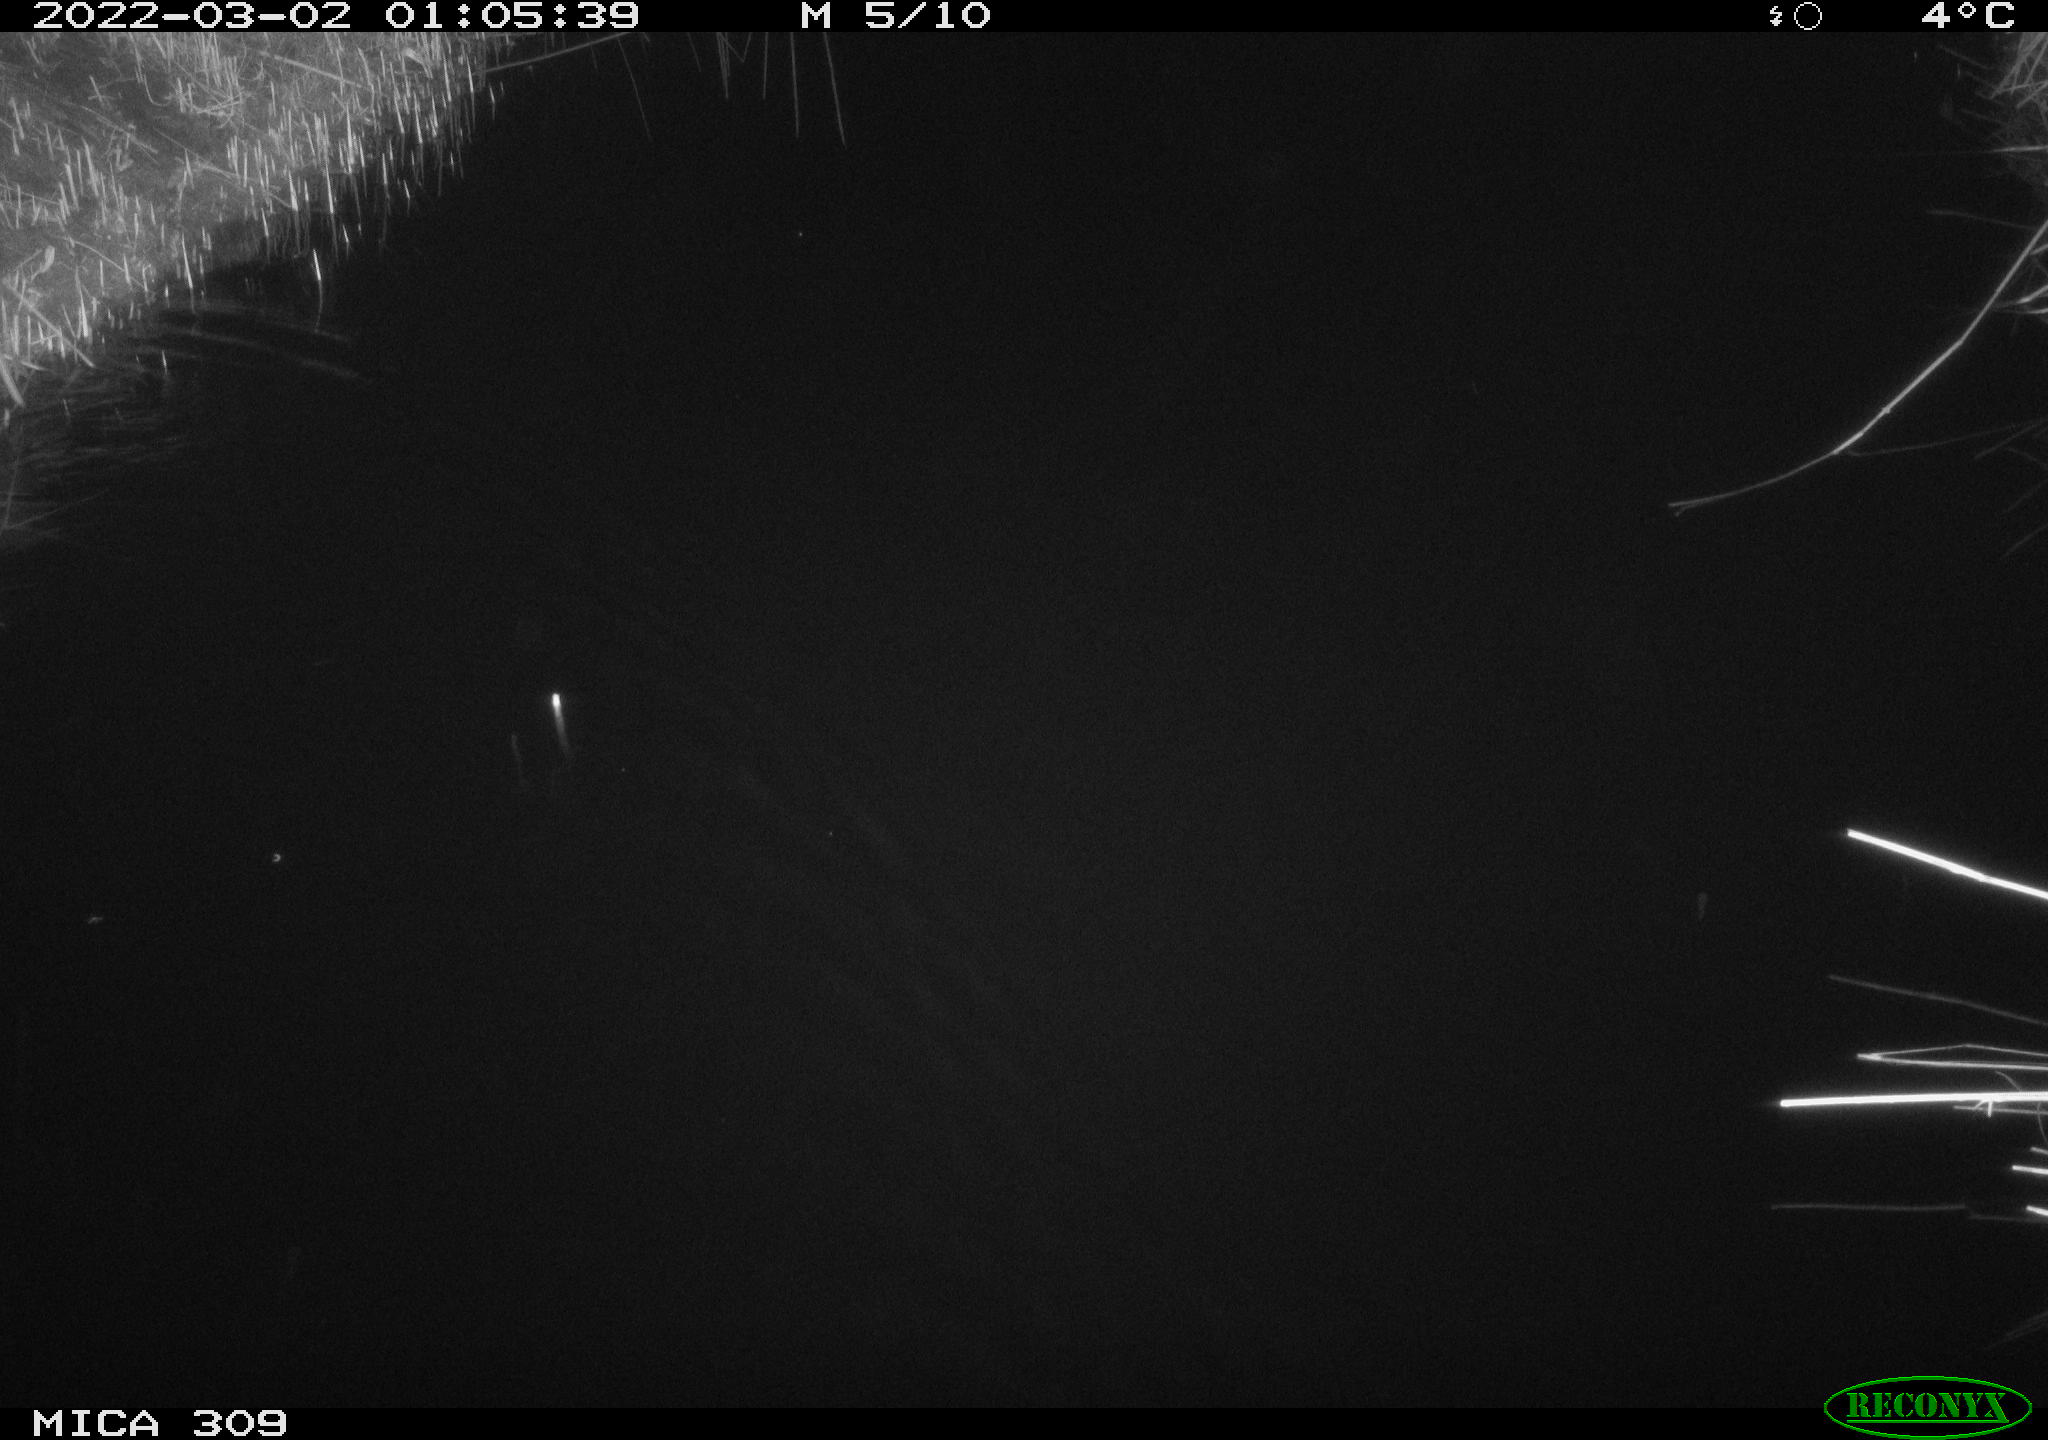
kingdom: Animalia
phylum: Chordata
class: Mammalia
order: Rodentia
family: Muridae
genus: Rattus
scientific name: Rattus norvegicus
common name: Brown rat
